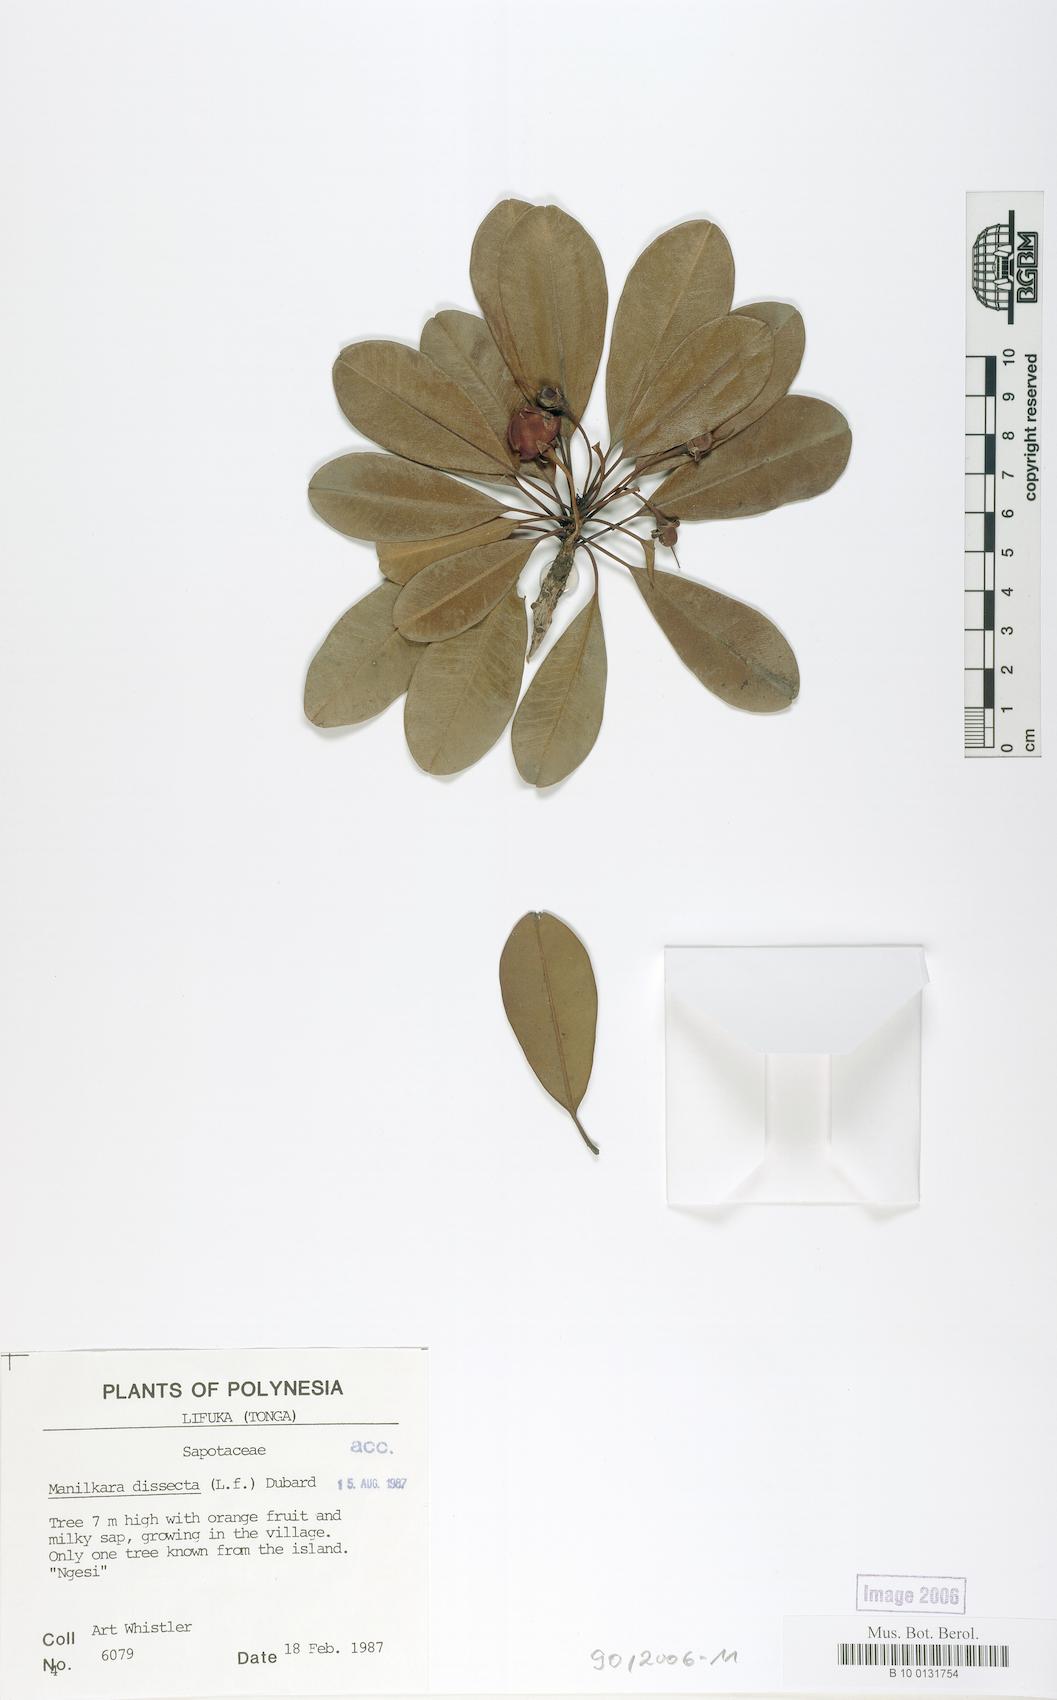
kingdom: Plantae
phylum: Tracheophyta
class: Magnoliopsida
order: Ericales
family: Sapotaceae
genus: Manilkara
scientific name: Manilkara dissecta
